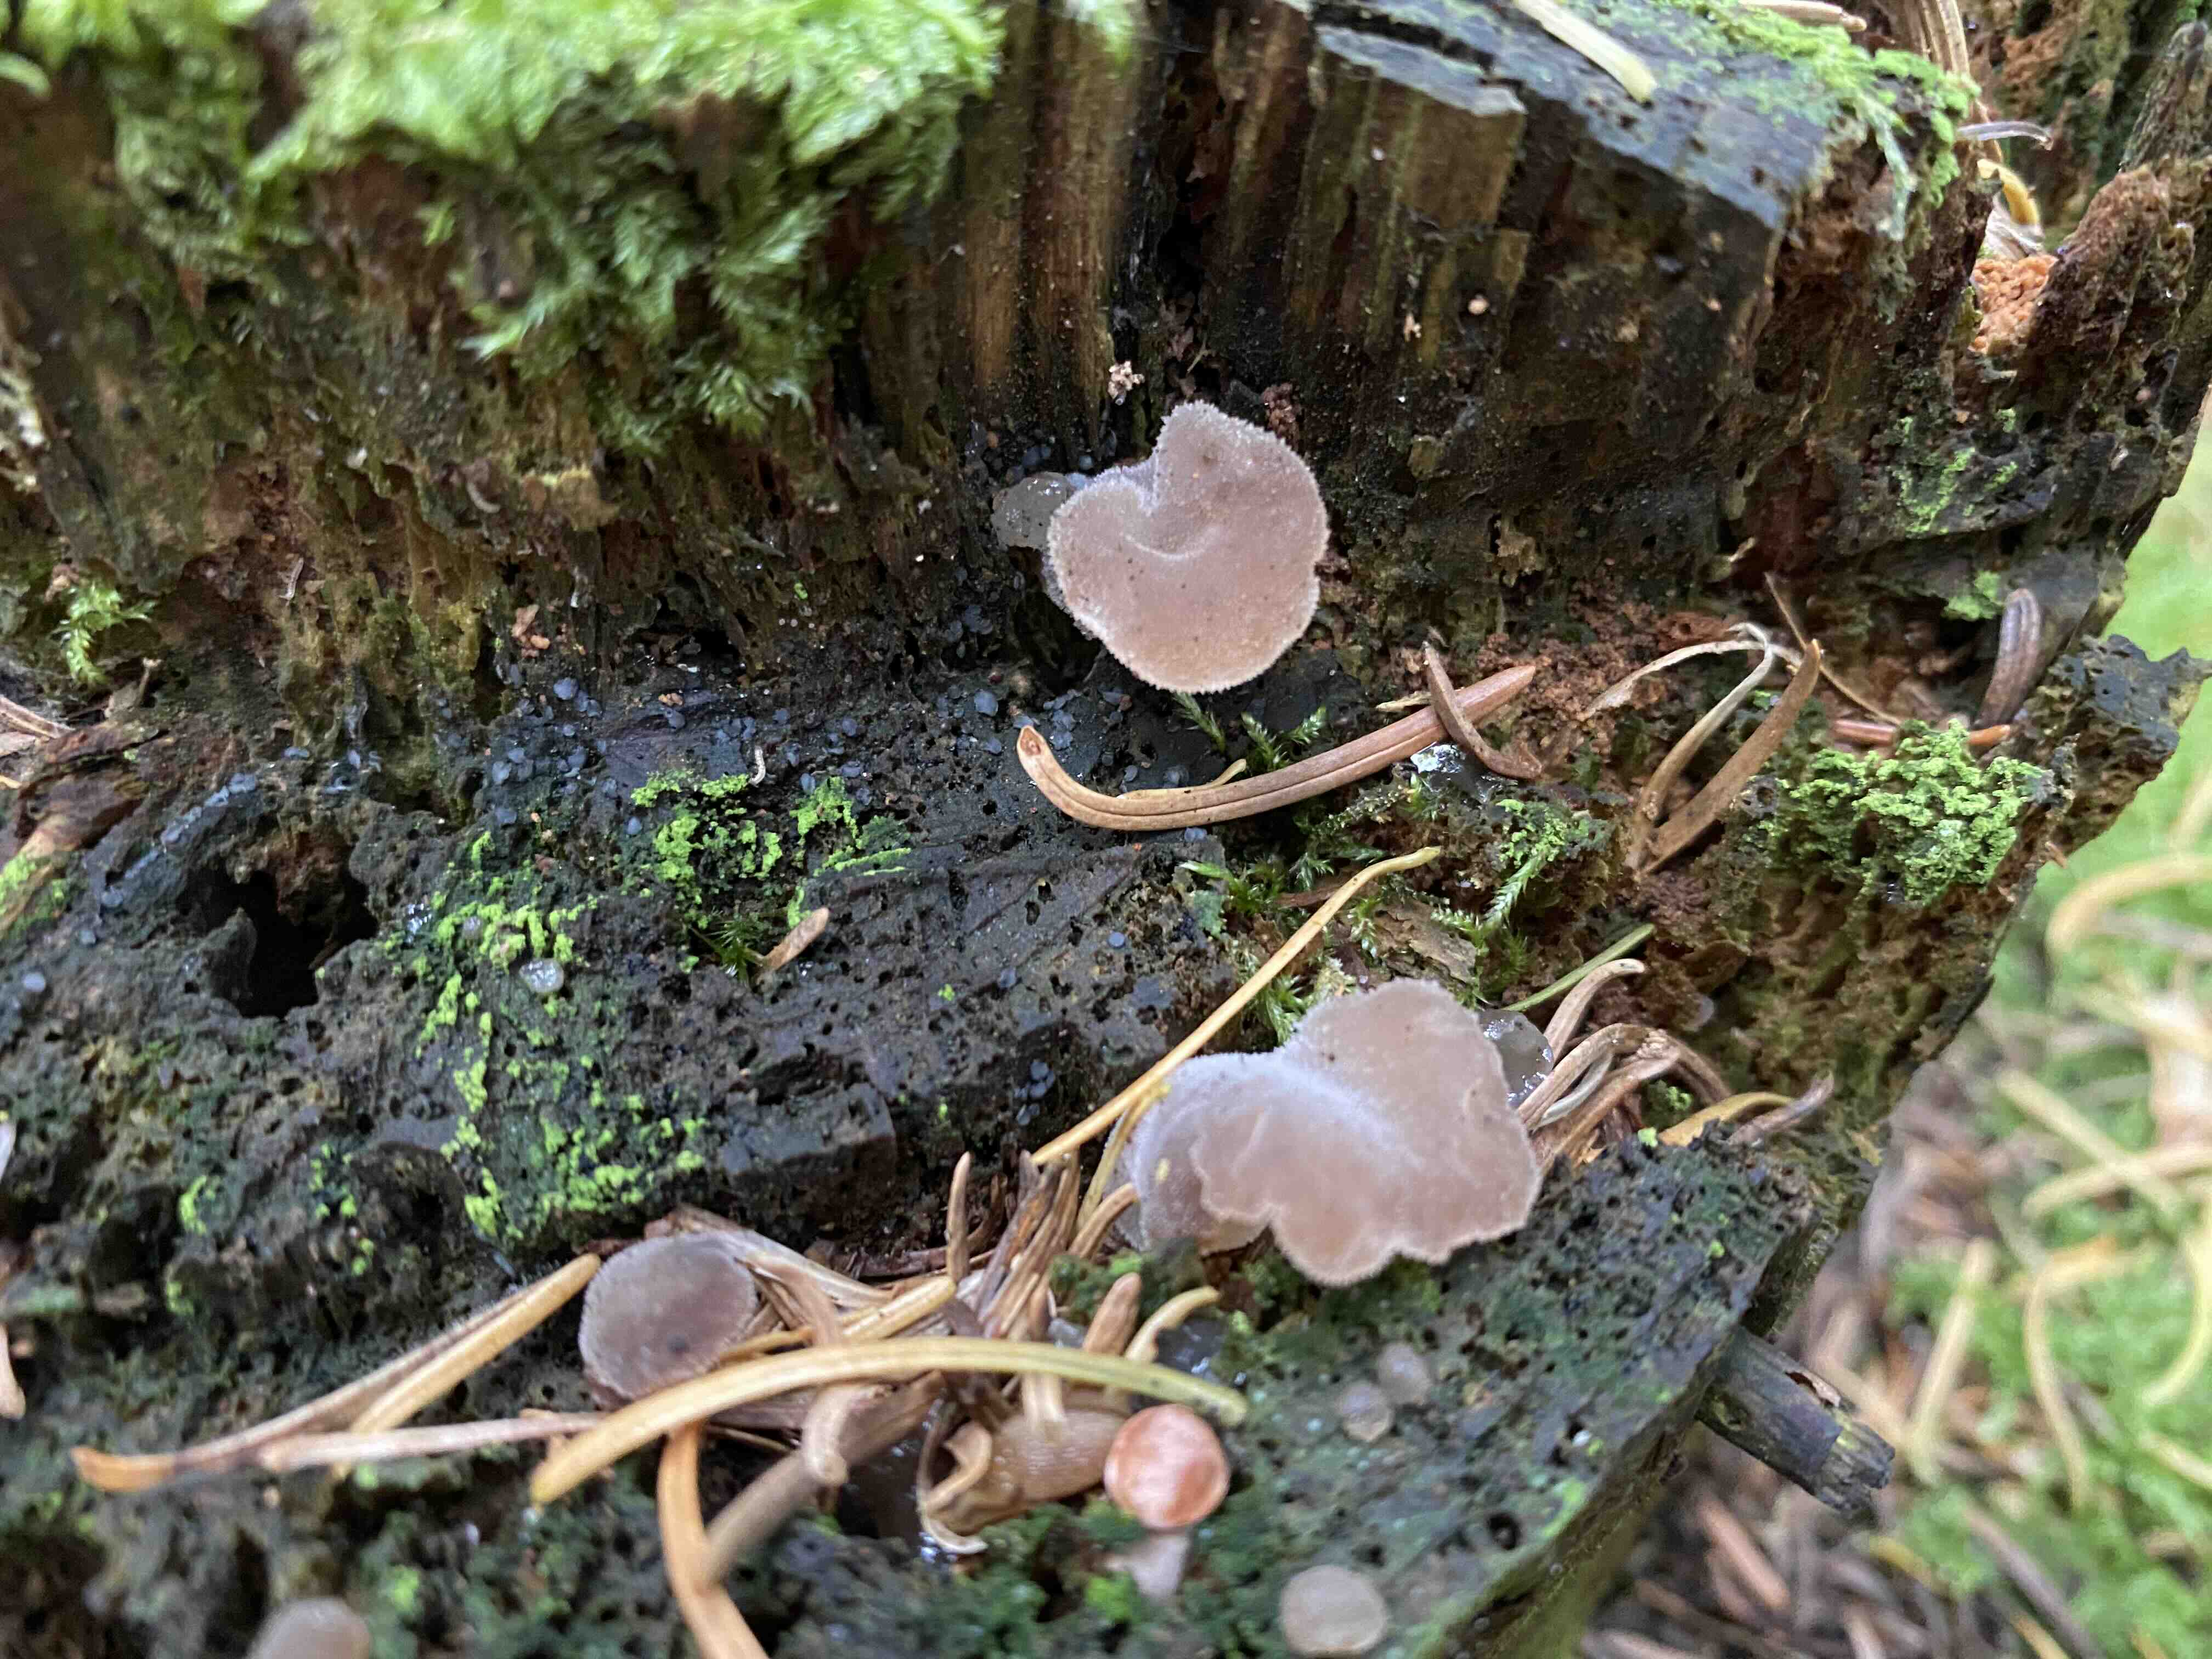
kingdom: Fungi
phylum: Basidiomycota
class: Agaricomycetes
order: Auriculariales
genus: Pseudohydnum
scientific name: Pseudohydnum gelatinosum
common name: bævretand
